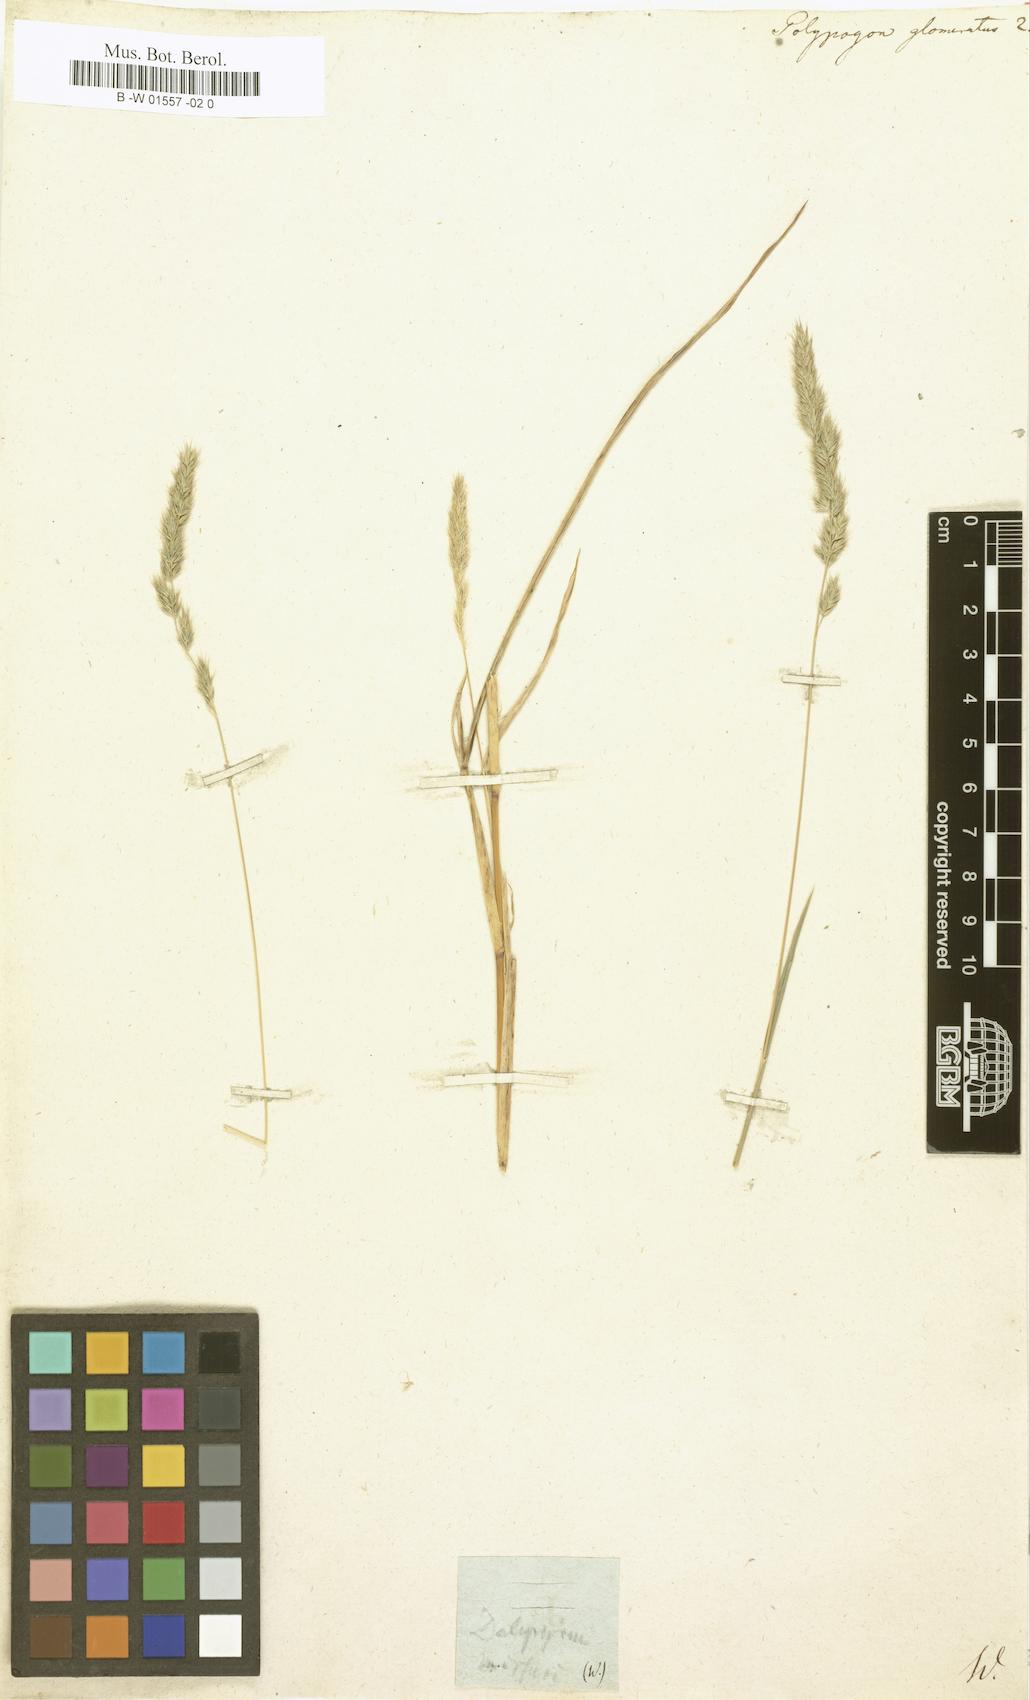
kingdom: Plantae
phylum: Tracheophyta
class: Liliopsida
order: Poales
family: Poaceae
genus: Muhlenbergia
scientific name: Muhlenbergia glomerata
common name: Bog muhly
